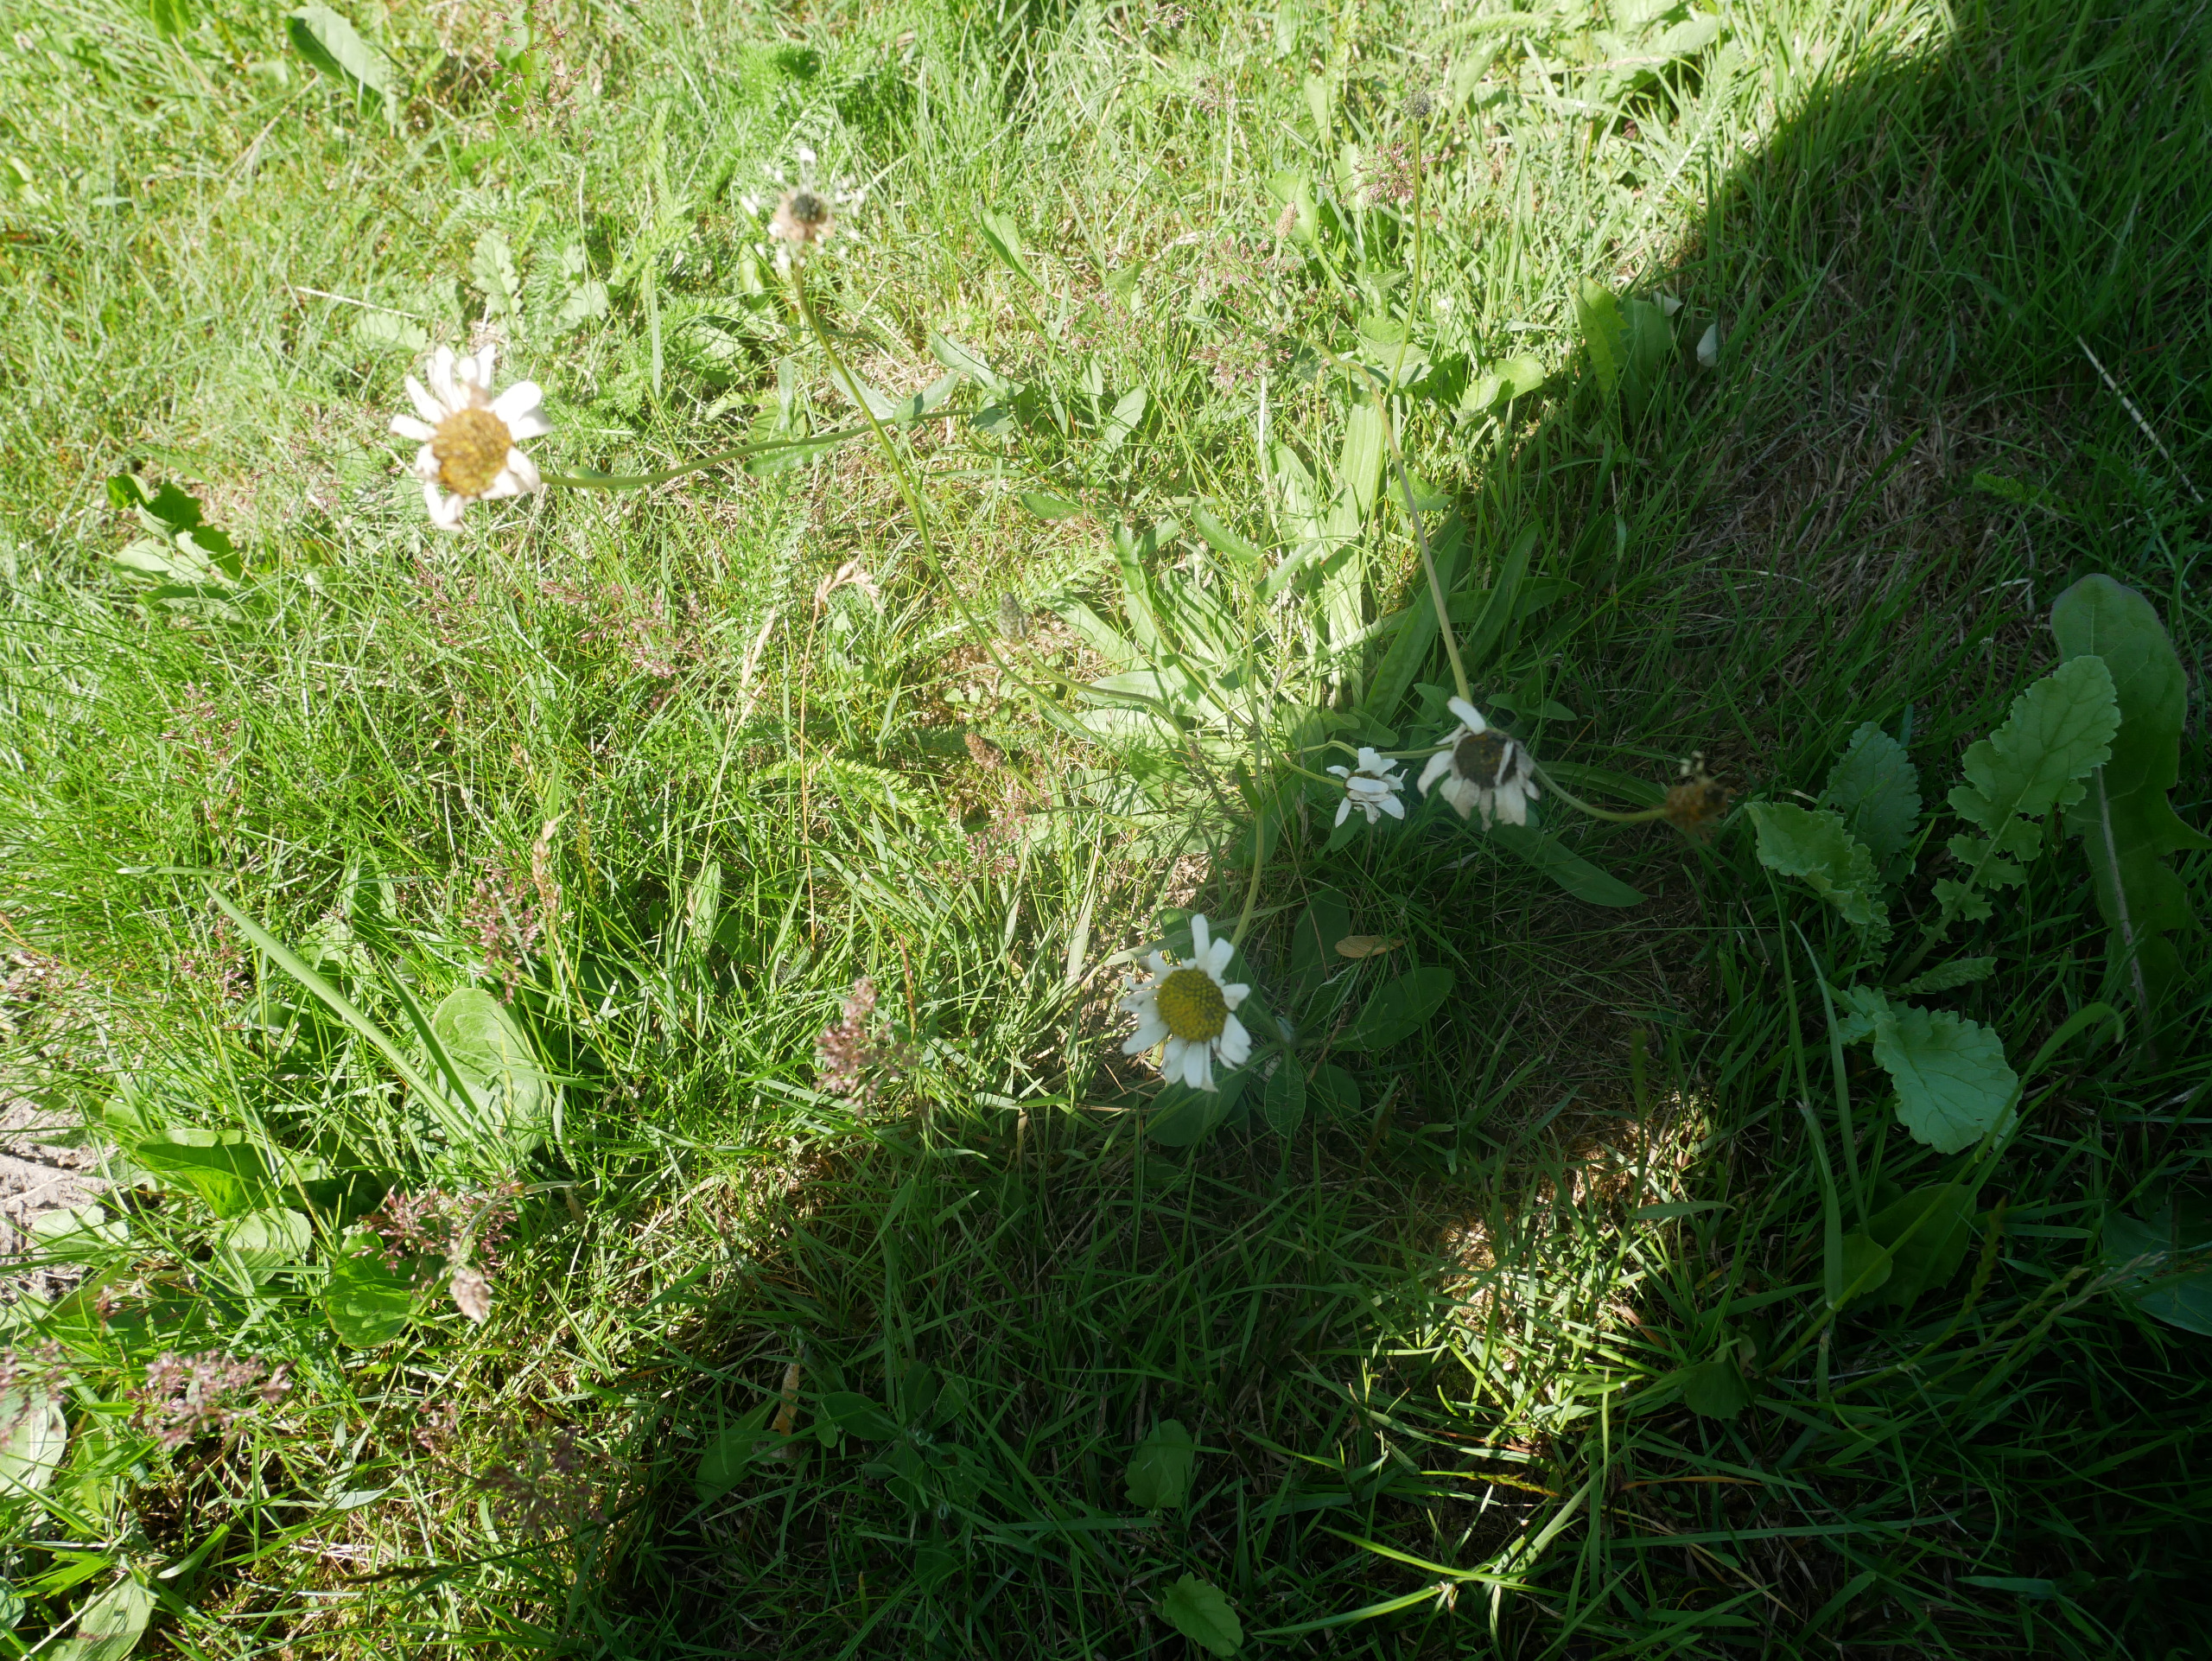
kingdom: Plantae
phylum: Tracheophyta
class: Magnoliopsida
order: Asterales
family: Asteraceae
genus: Leucanthemum
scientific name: Leucanthemum vulgare
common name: Hvid okseøje
